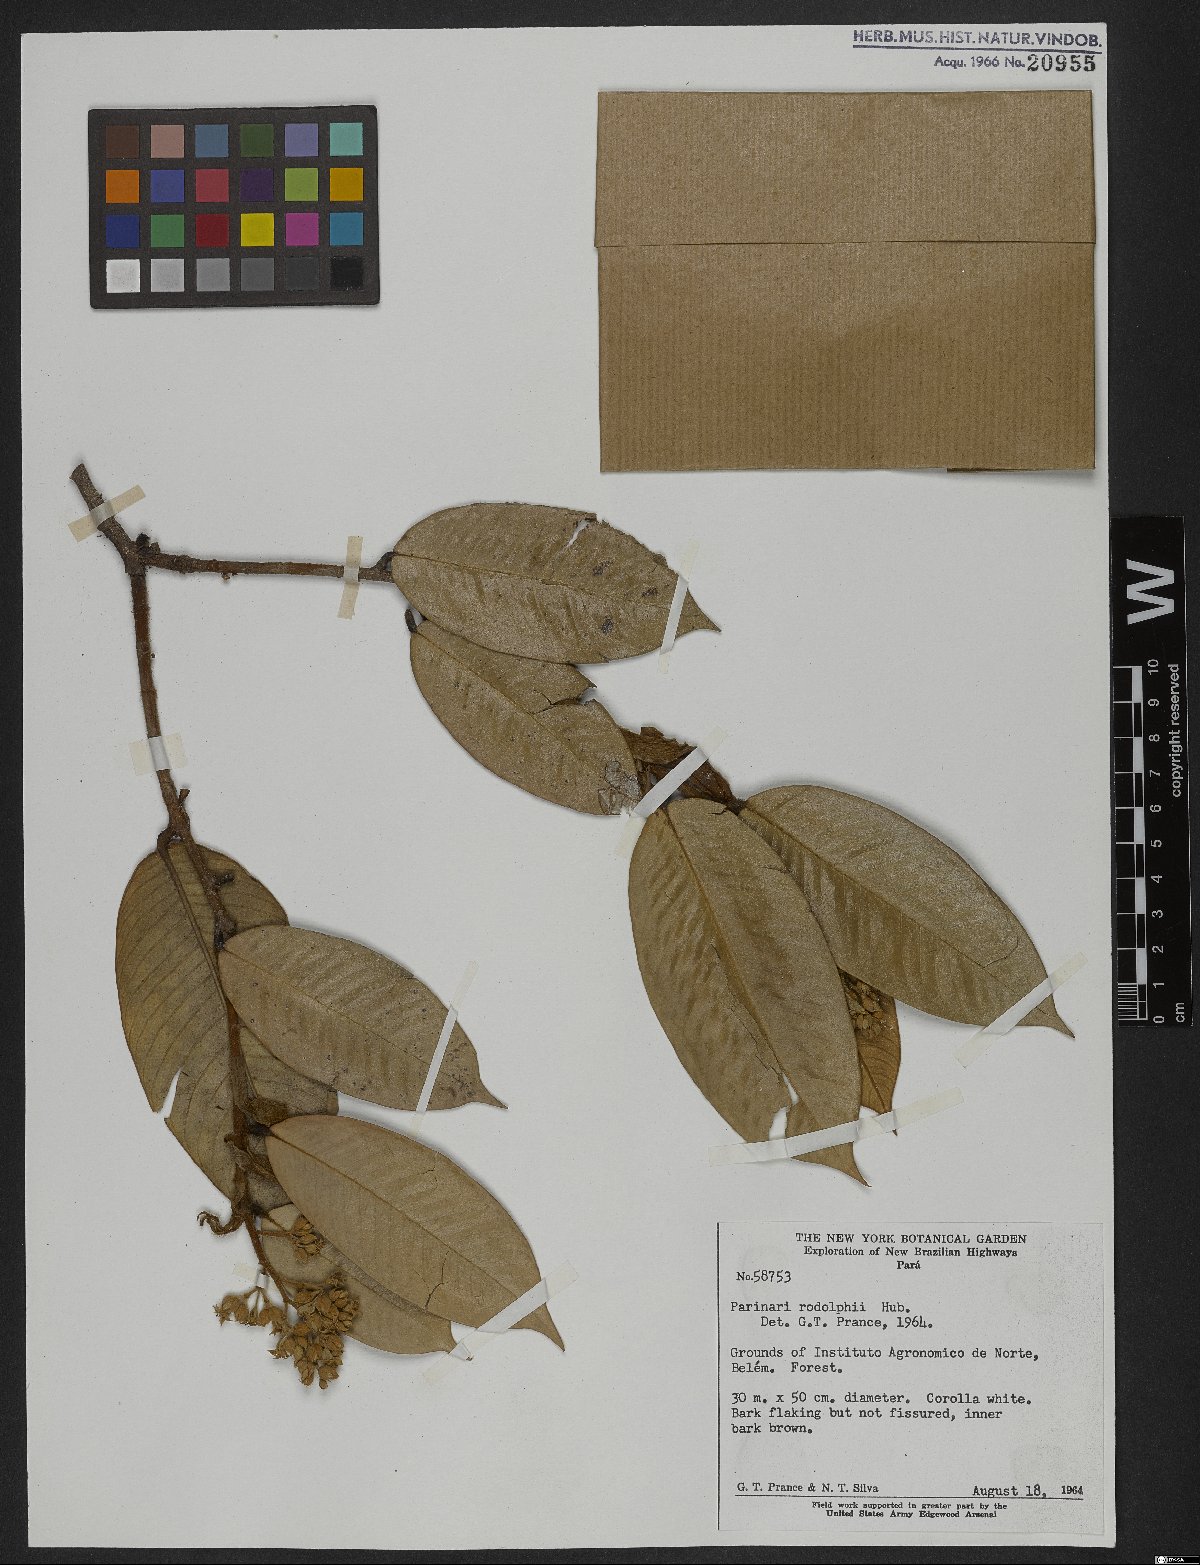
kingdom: Plantae
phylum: Tracheophyta
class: Magnoliopsida
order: Malpighiales
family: Chrysobalanaceae
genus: Parinari
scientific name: Parinari rodolphii
